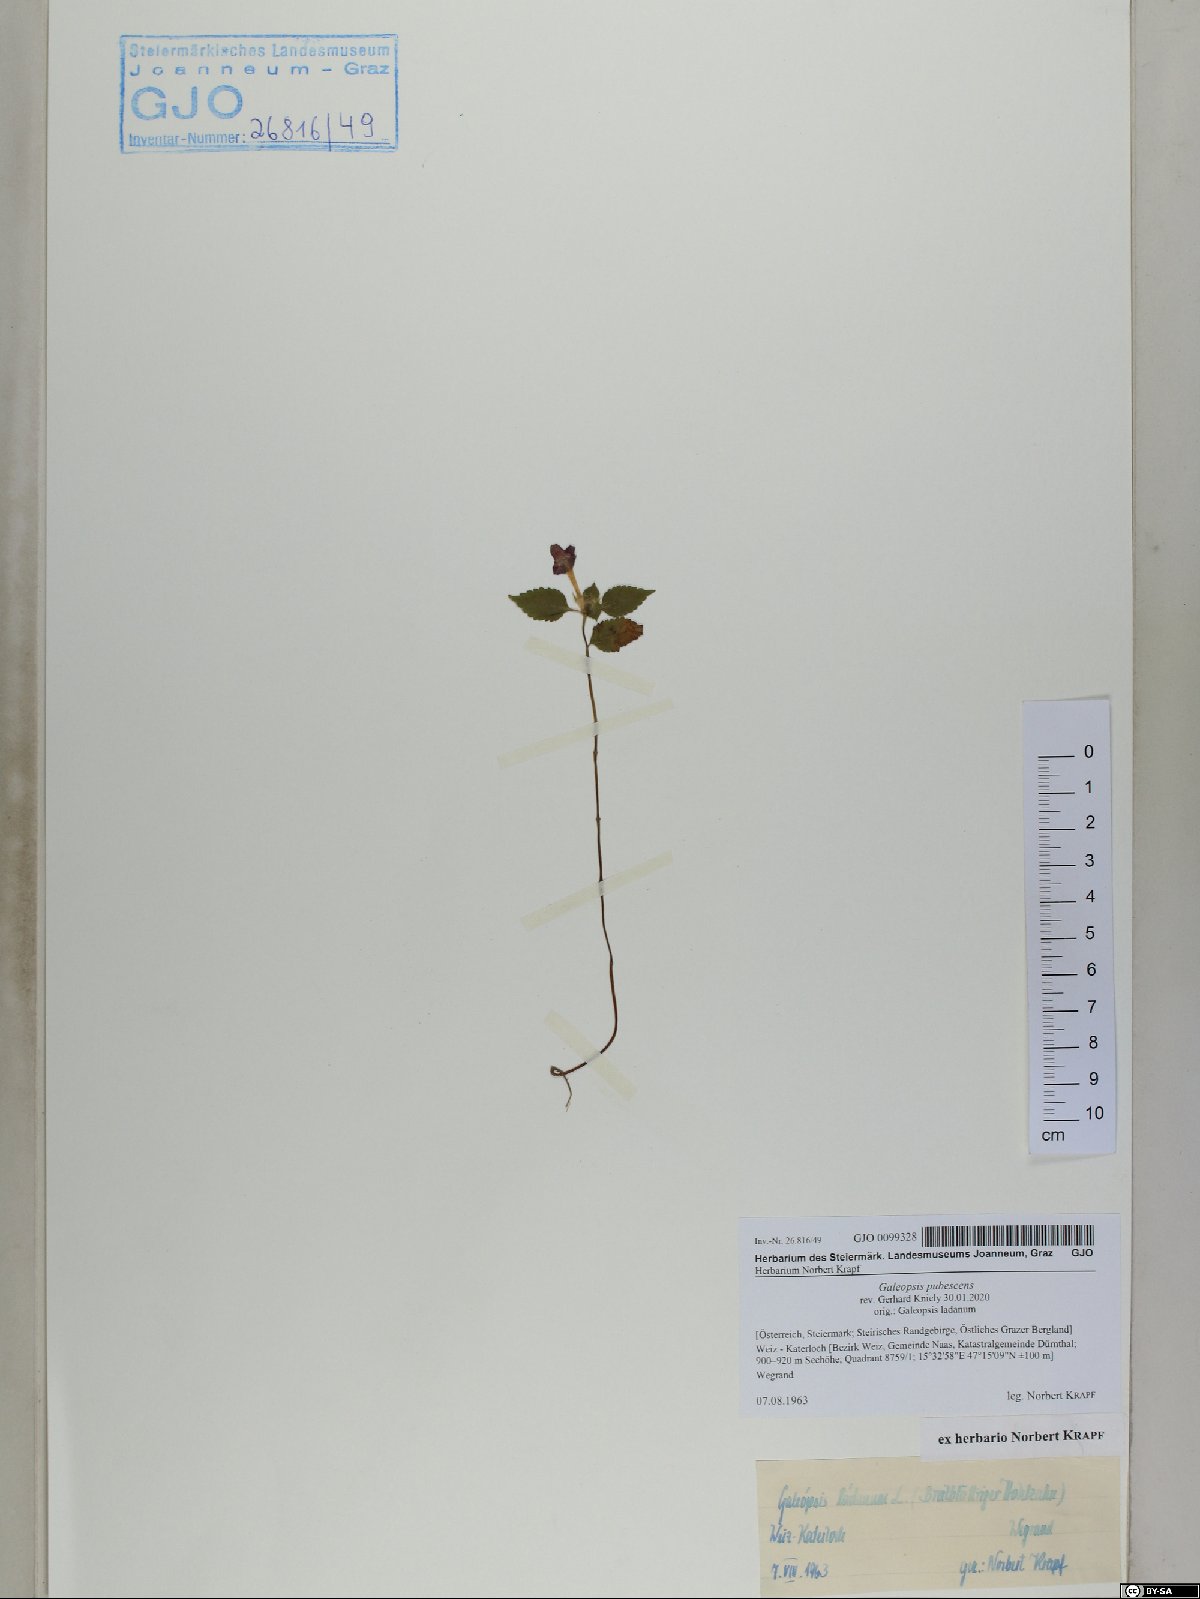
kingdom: Plantae
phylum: Tracheophyta
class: Magnoliopsida
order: Lamiales
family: Lamiaceae
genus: Galeopsis
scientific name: Galeopsis pubescens
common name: Downy hemp-nettle
